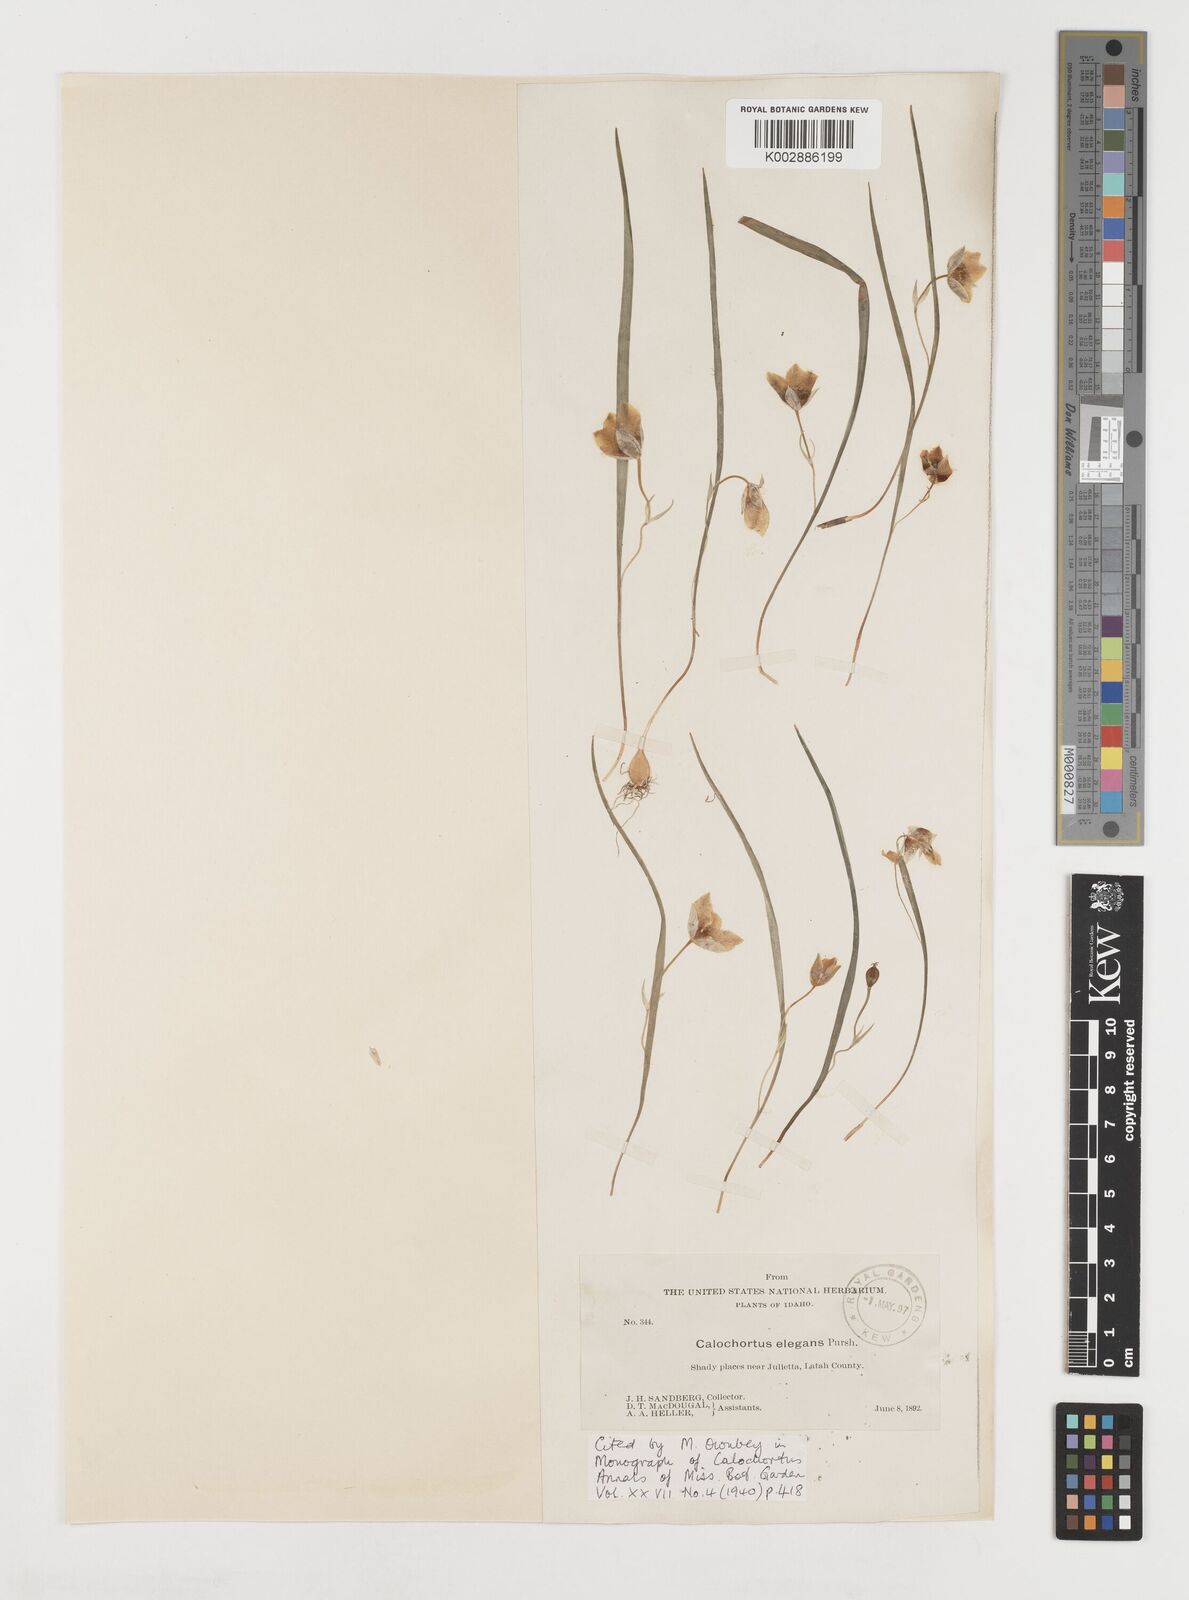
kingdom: Plantae
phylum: Tracheophyta
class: Liliopsida
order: Liliales
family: Liliaceae
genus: Calochortus
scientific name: Calochortus elegans
